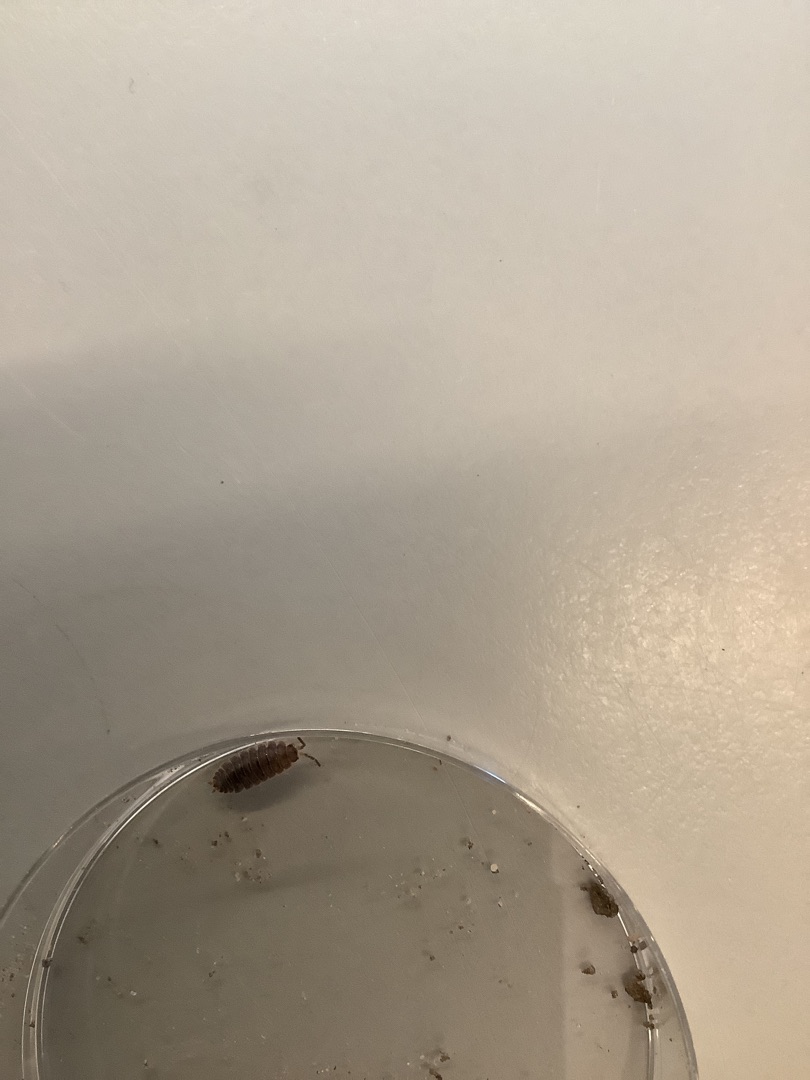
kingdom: Animalia
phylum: Arthropoda
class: Malacostraca
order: Isopoda
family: Oniscidae
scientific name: Oniscidae
